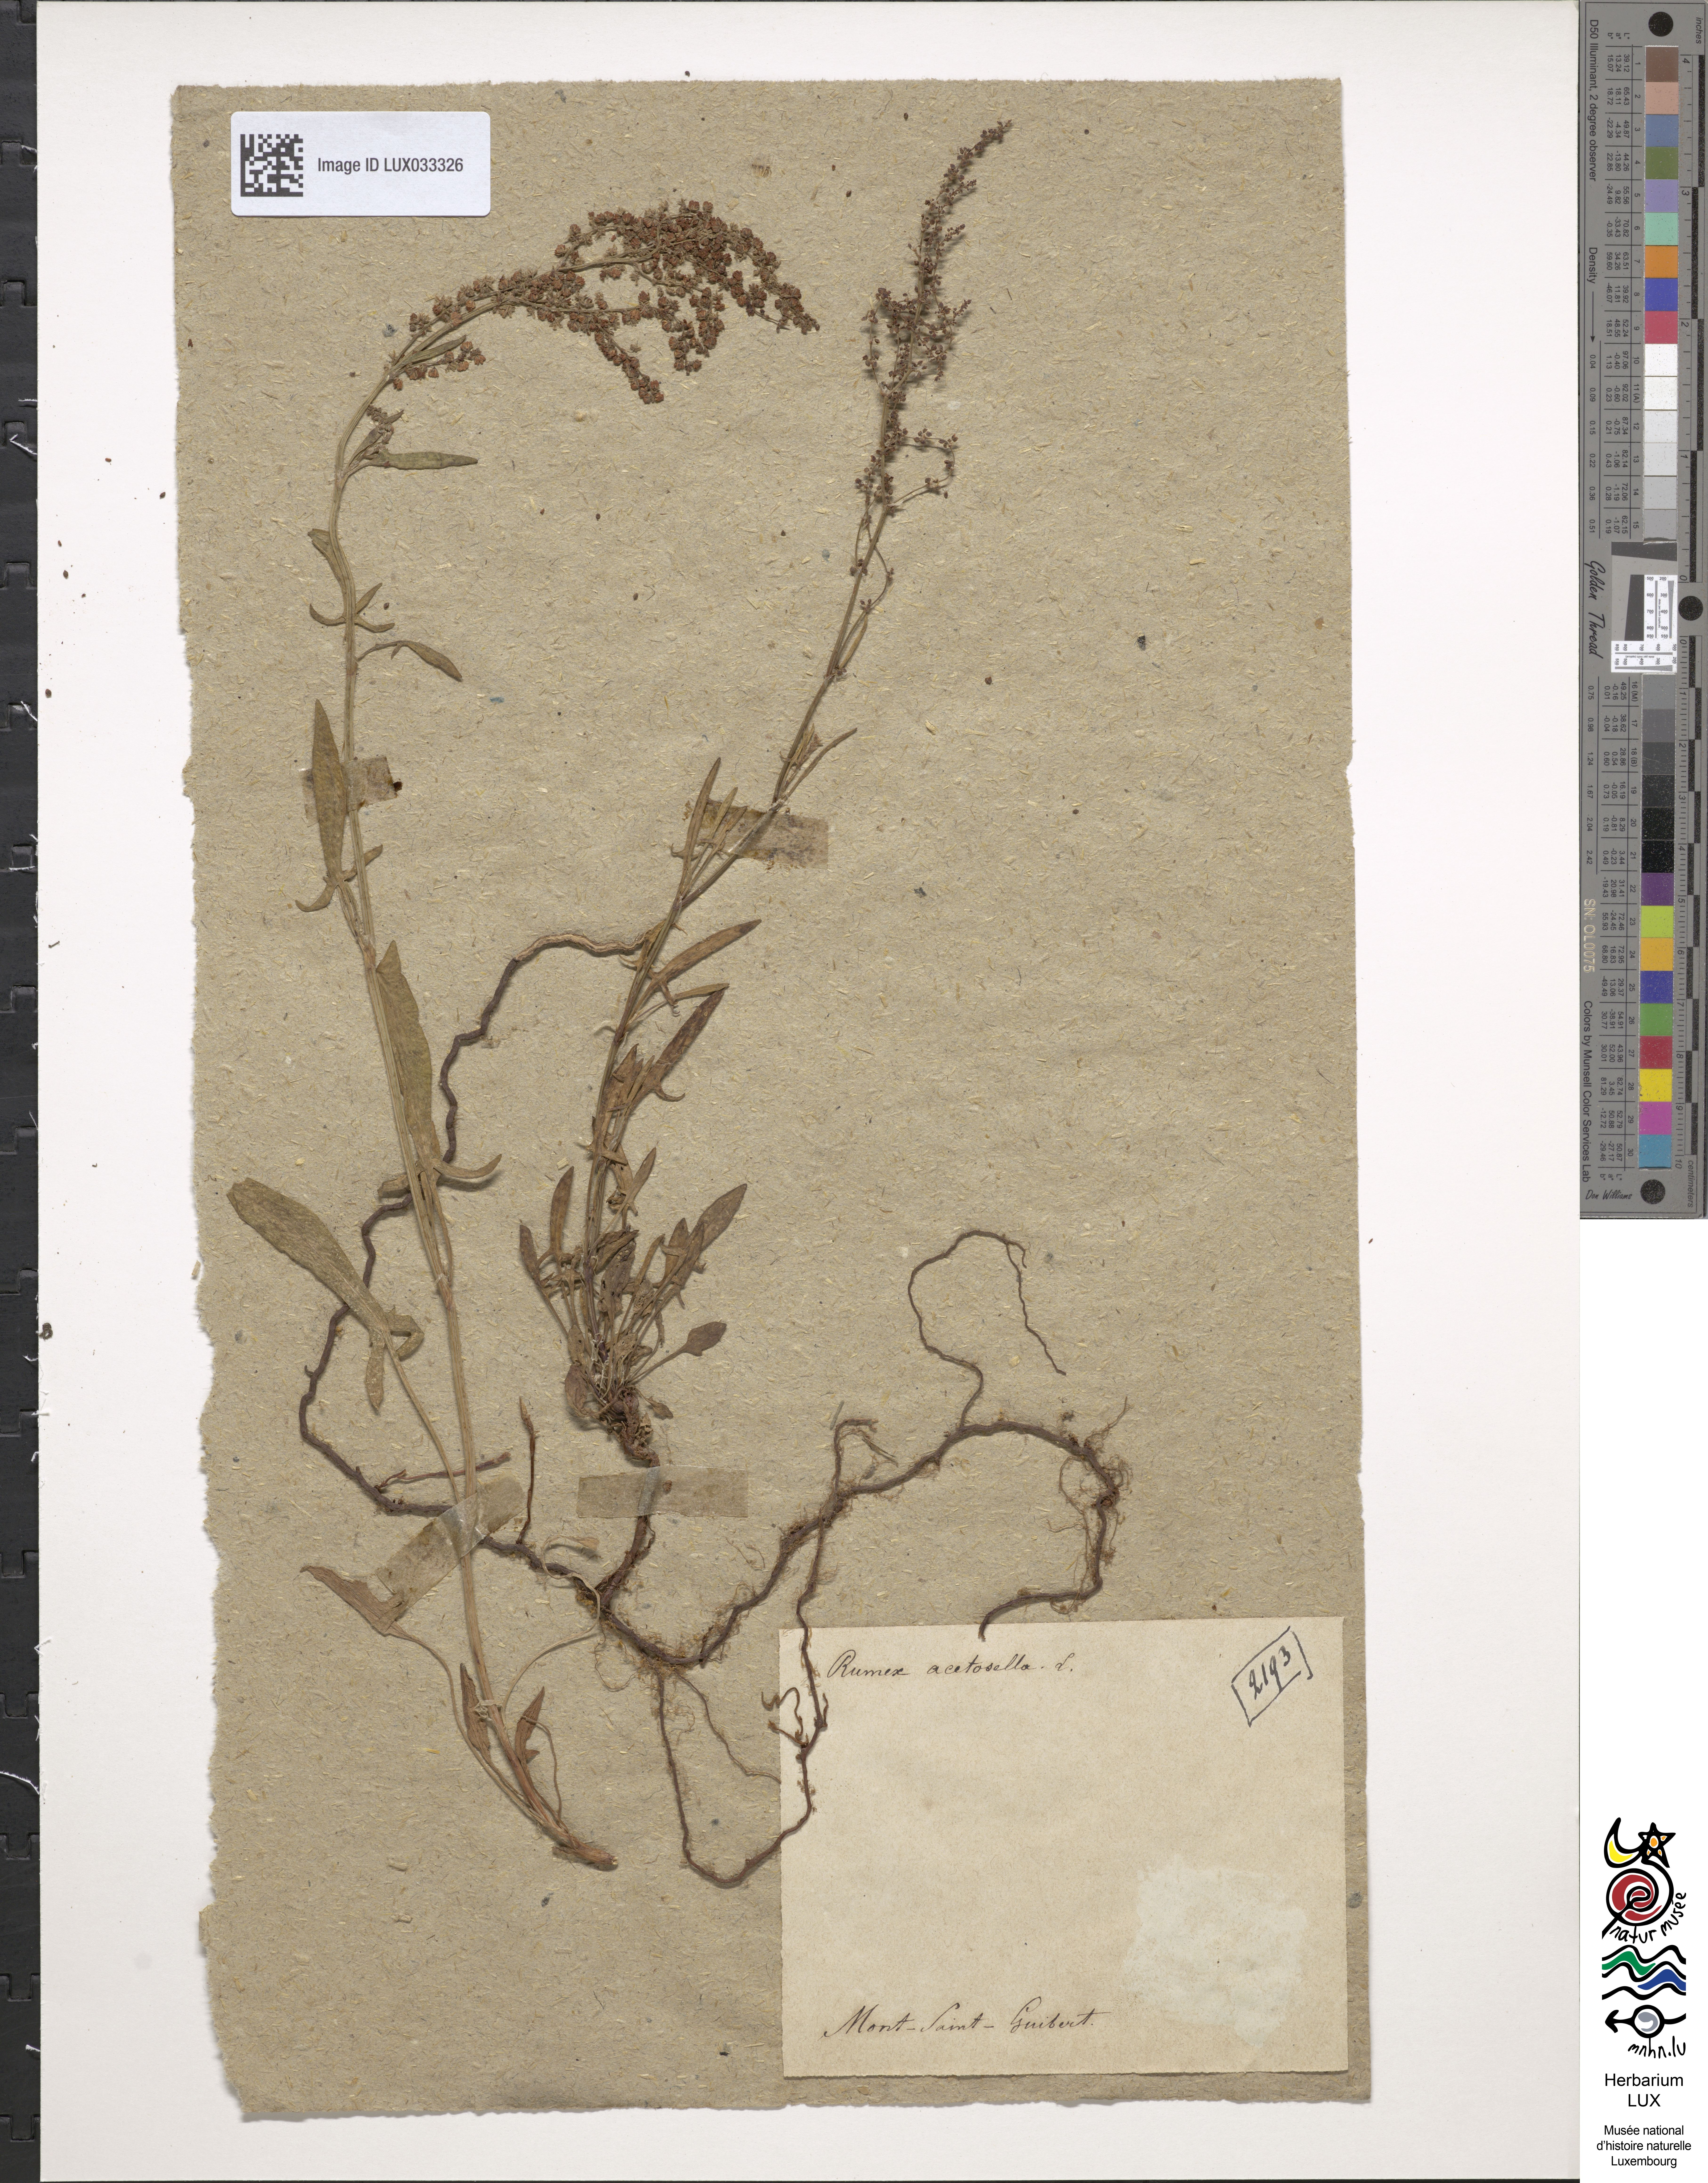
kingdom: Plantae
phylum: Tracheophyta
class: Magnoliopsida
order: Caryophyllales
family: Polygonaceae
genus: Rumex
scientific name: Rumex acetosella
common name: Common sheep sorrel
